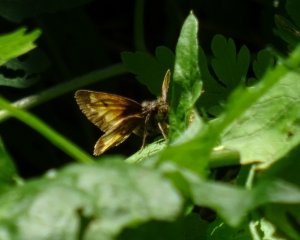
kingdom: Animalia
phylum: Arthropoda
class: Insecta
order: Lepidoptera
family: Hesperiidae
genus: Lon
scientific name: Lon hobomok
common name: Hobomok Skipper
